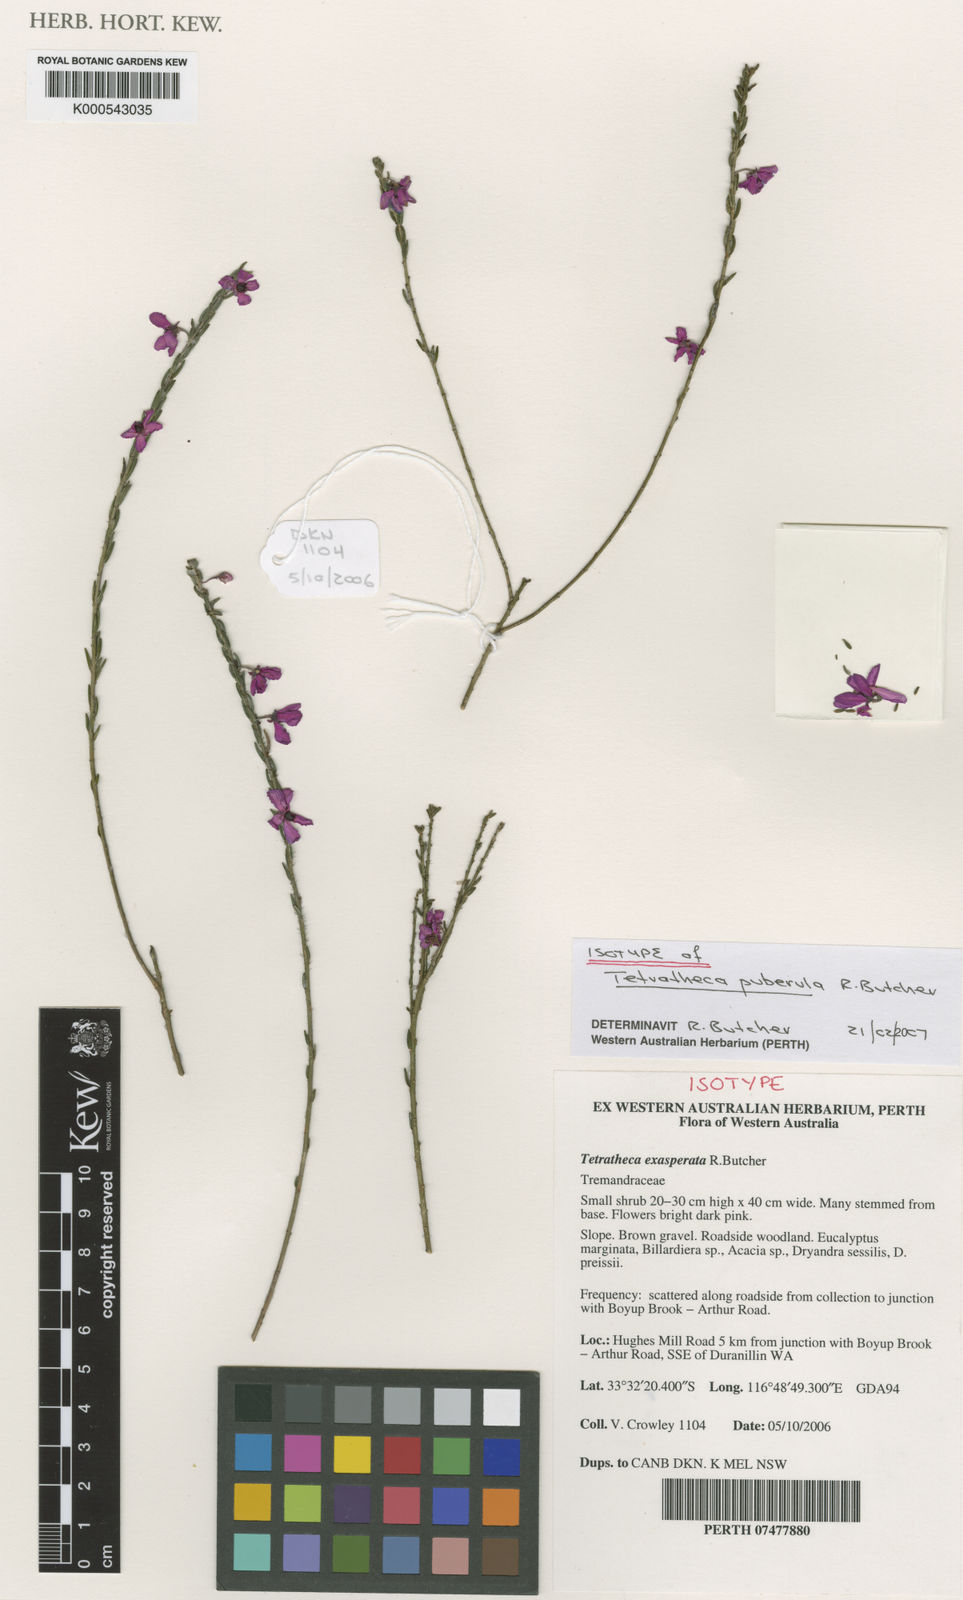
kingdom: Plantae
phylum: Tracheophyta
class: Magnoliopsida
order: Oxalidales
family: Elaeocarpaceae
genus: Tetratheca
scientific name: Tetratheca exasperata
